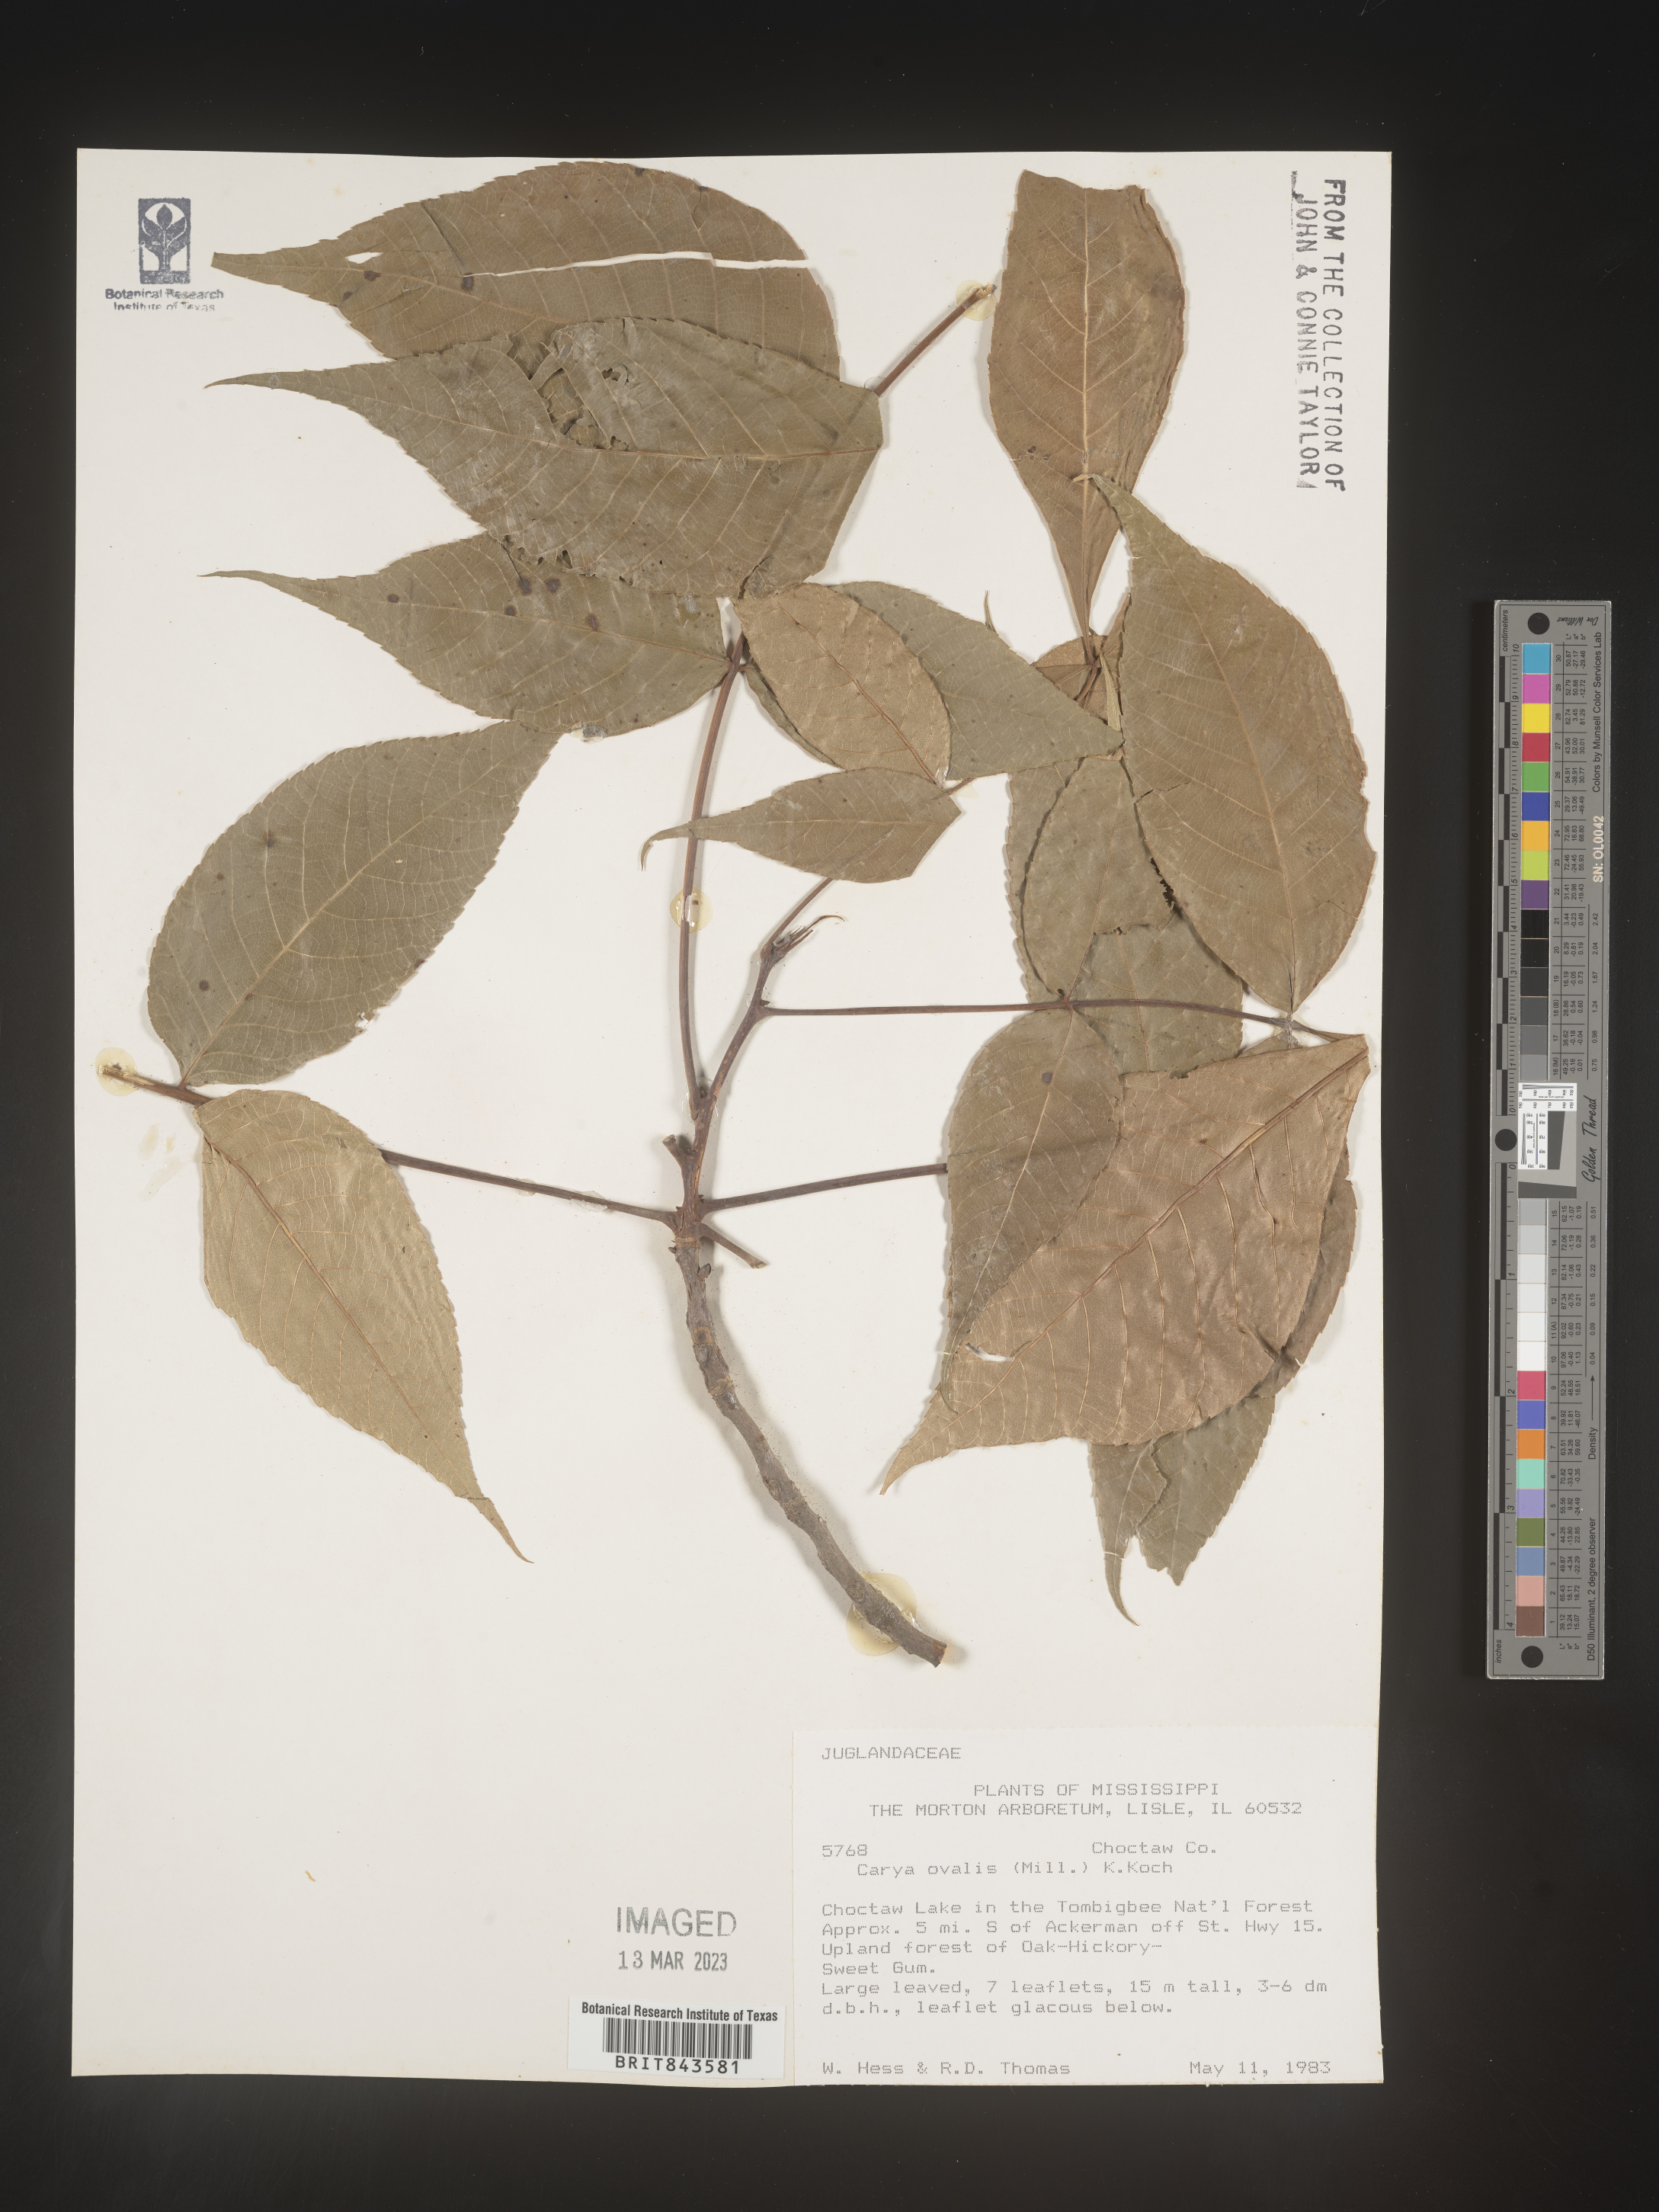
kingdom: Plantae
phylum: Tracheophyta
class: Magnoliopsida
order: Fagales
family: Juglandaceae
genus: Carya
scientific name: Carya ovalis
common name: False shagbark
